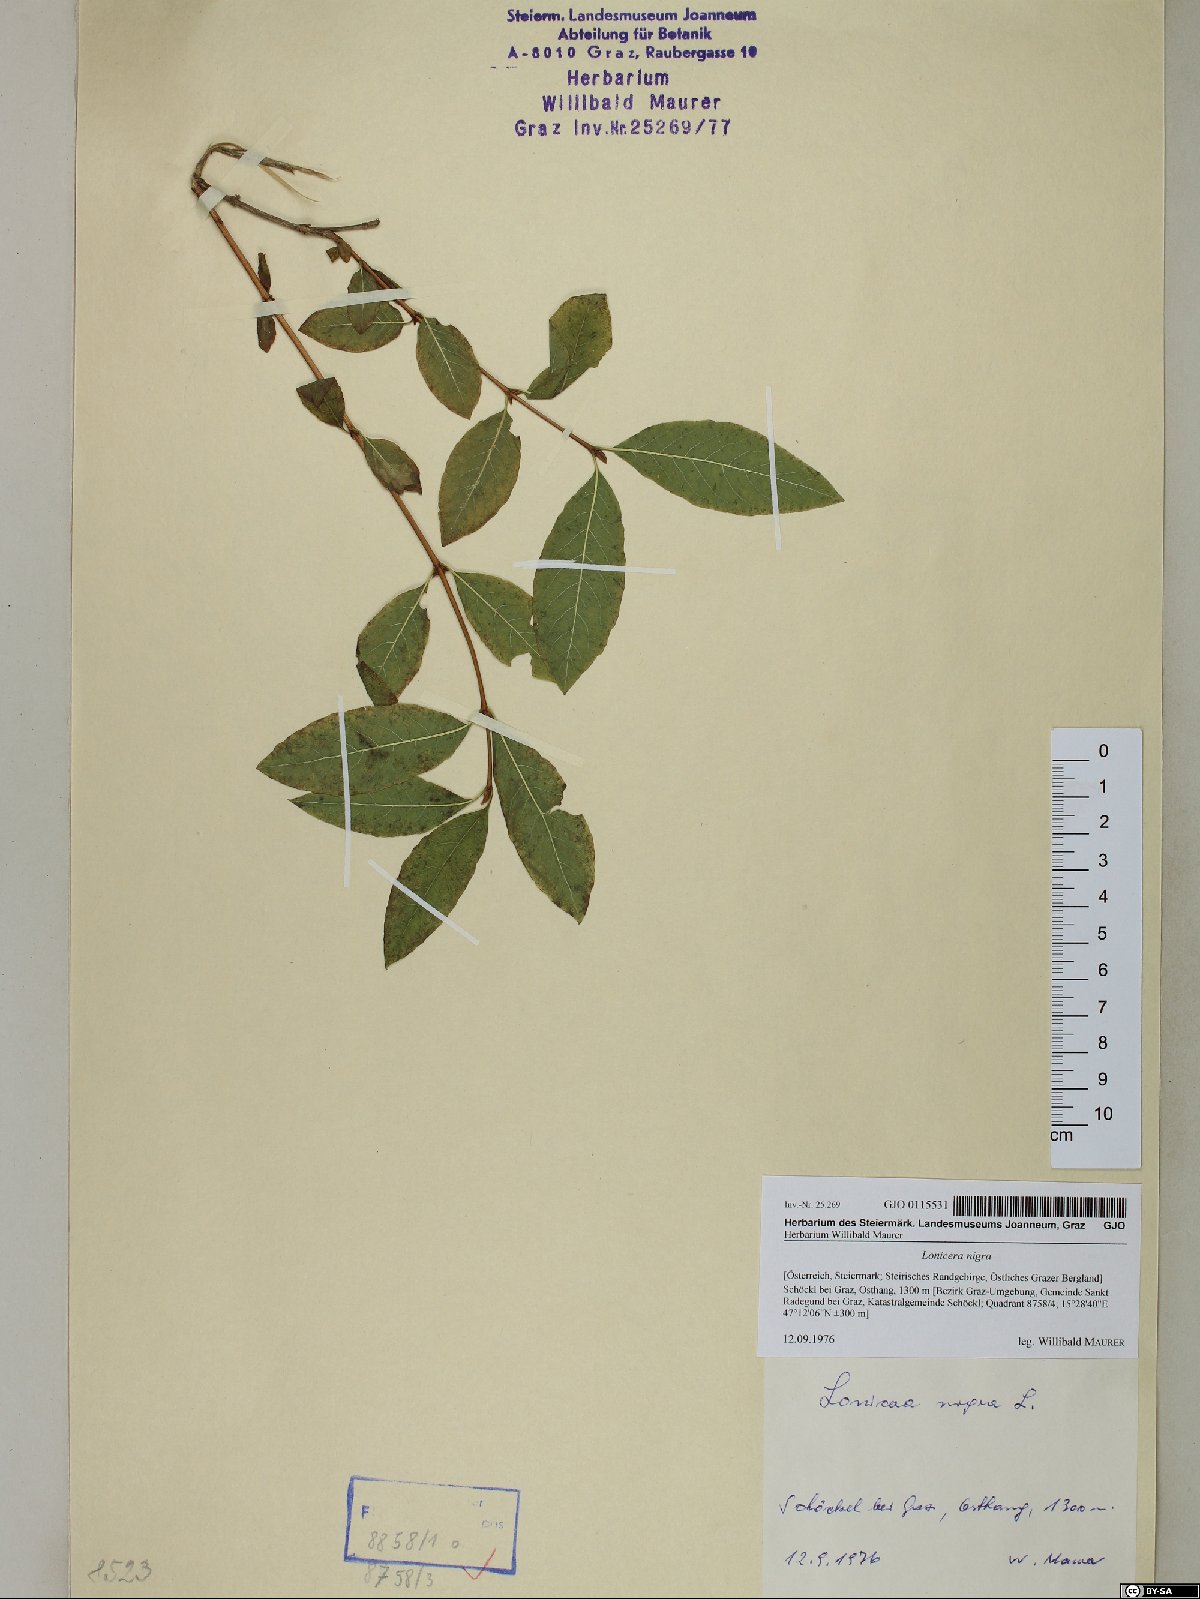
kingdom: Plantae
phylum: Tracheophyta
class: Magnoliopsida
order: Dipsacales
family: Caprifoliaceae
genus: Lonicera
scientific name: Lonicera nigra
